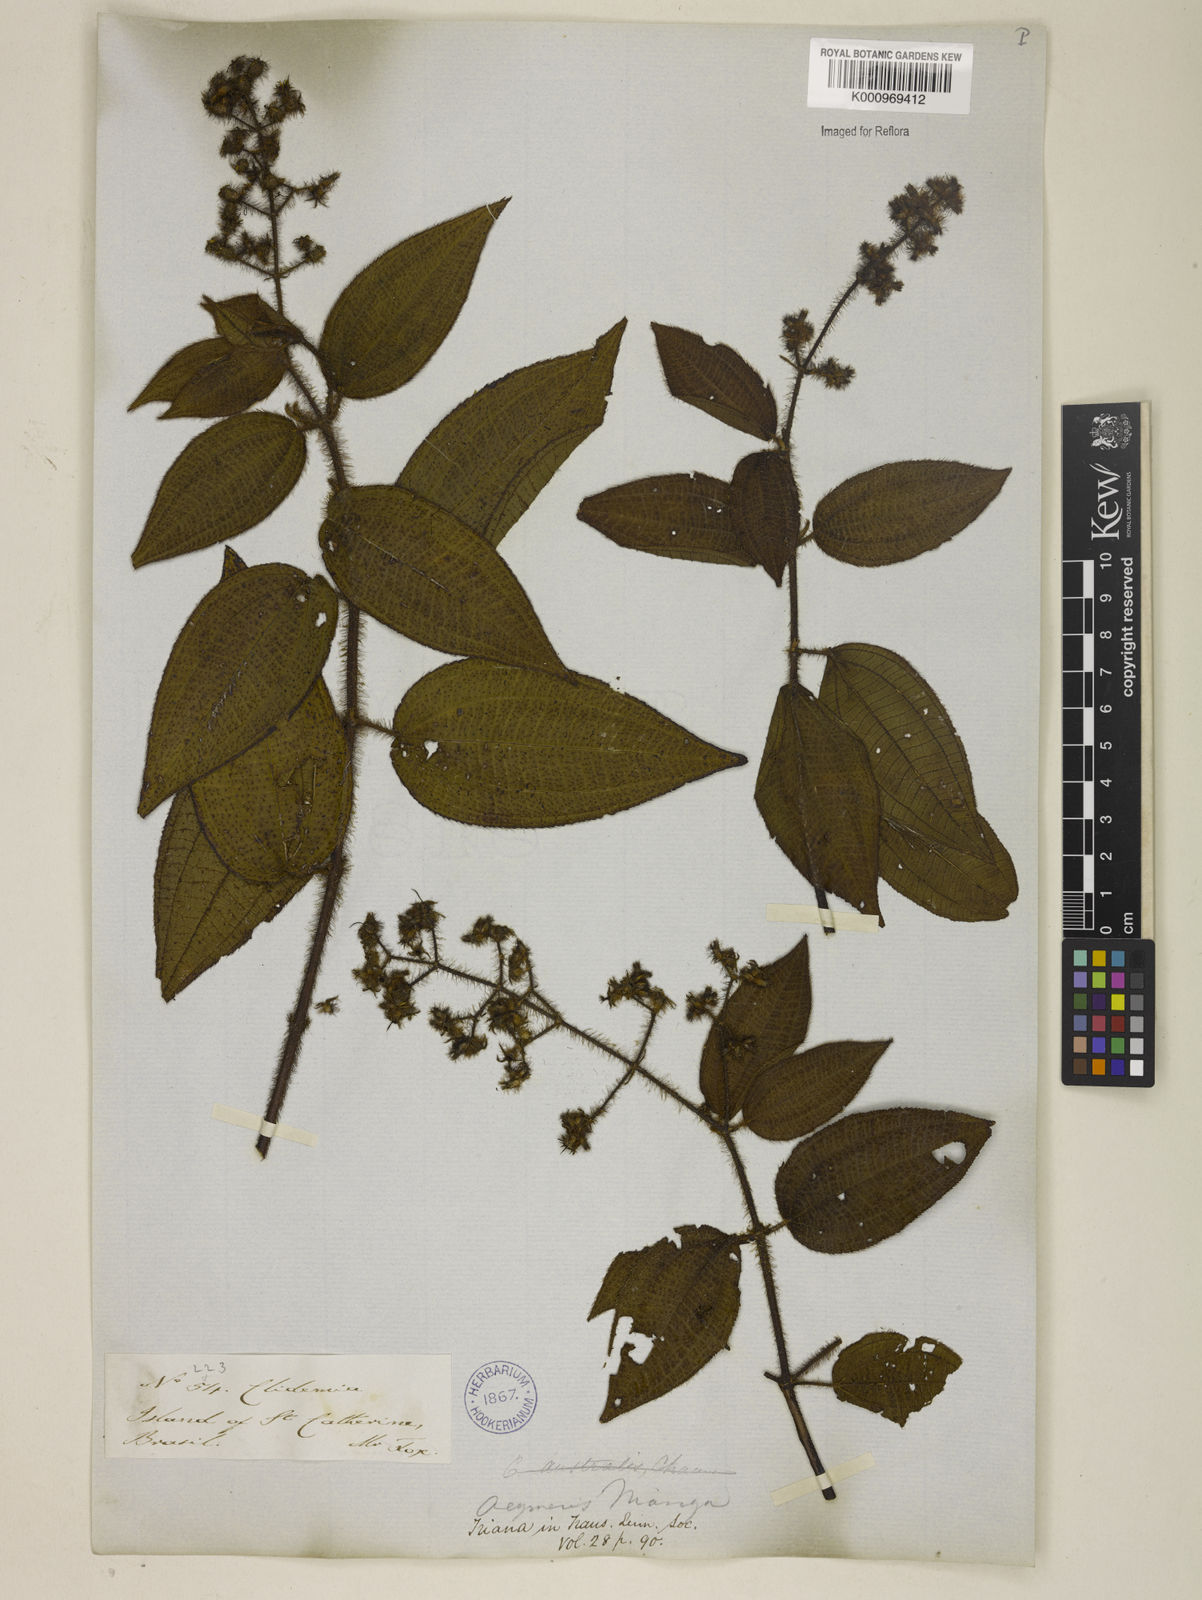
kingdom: Plantae
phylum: Tracheophyta
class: Magnoliopsida
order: Myrtales
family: Melastomataceae
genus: Miconia
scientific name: Miconia nianga
